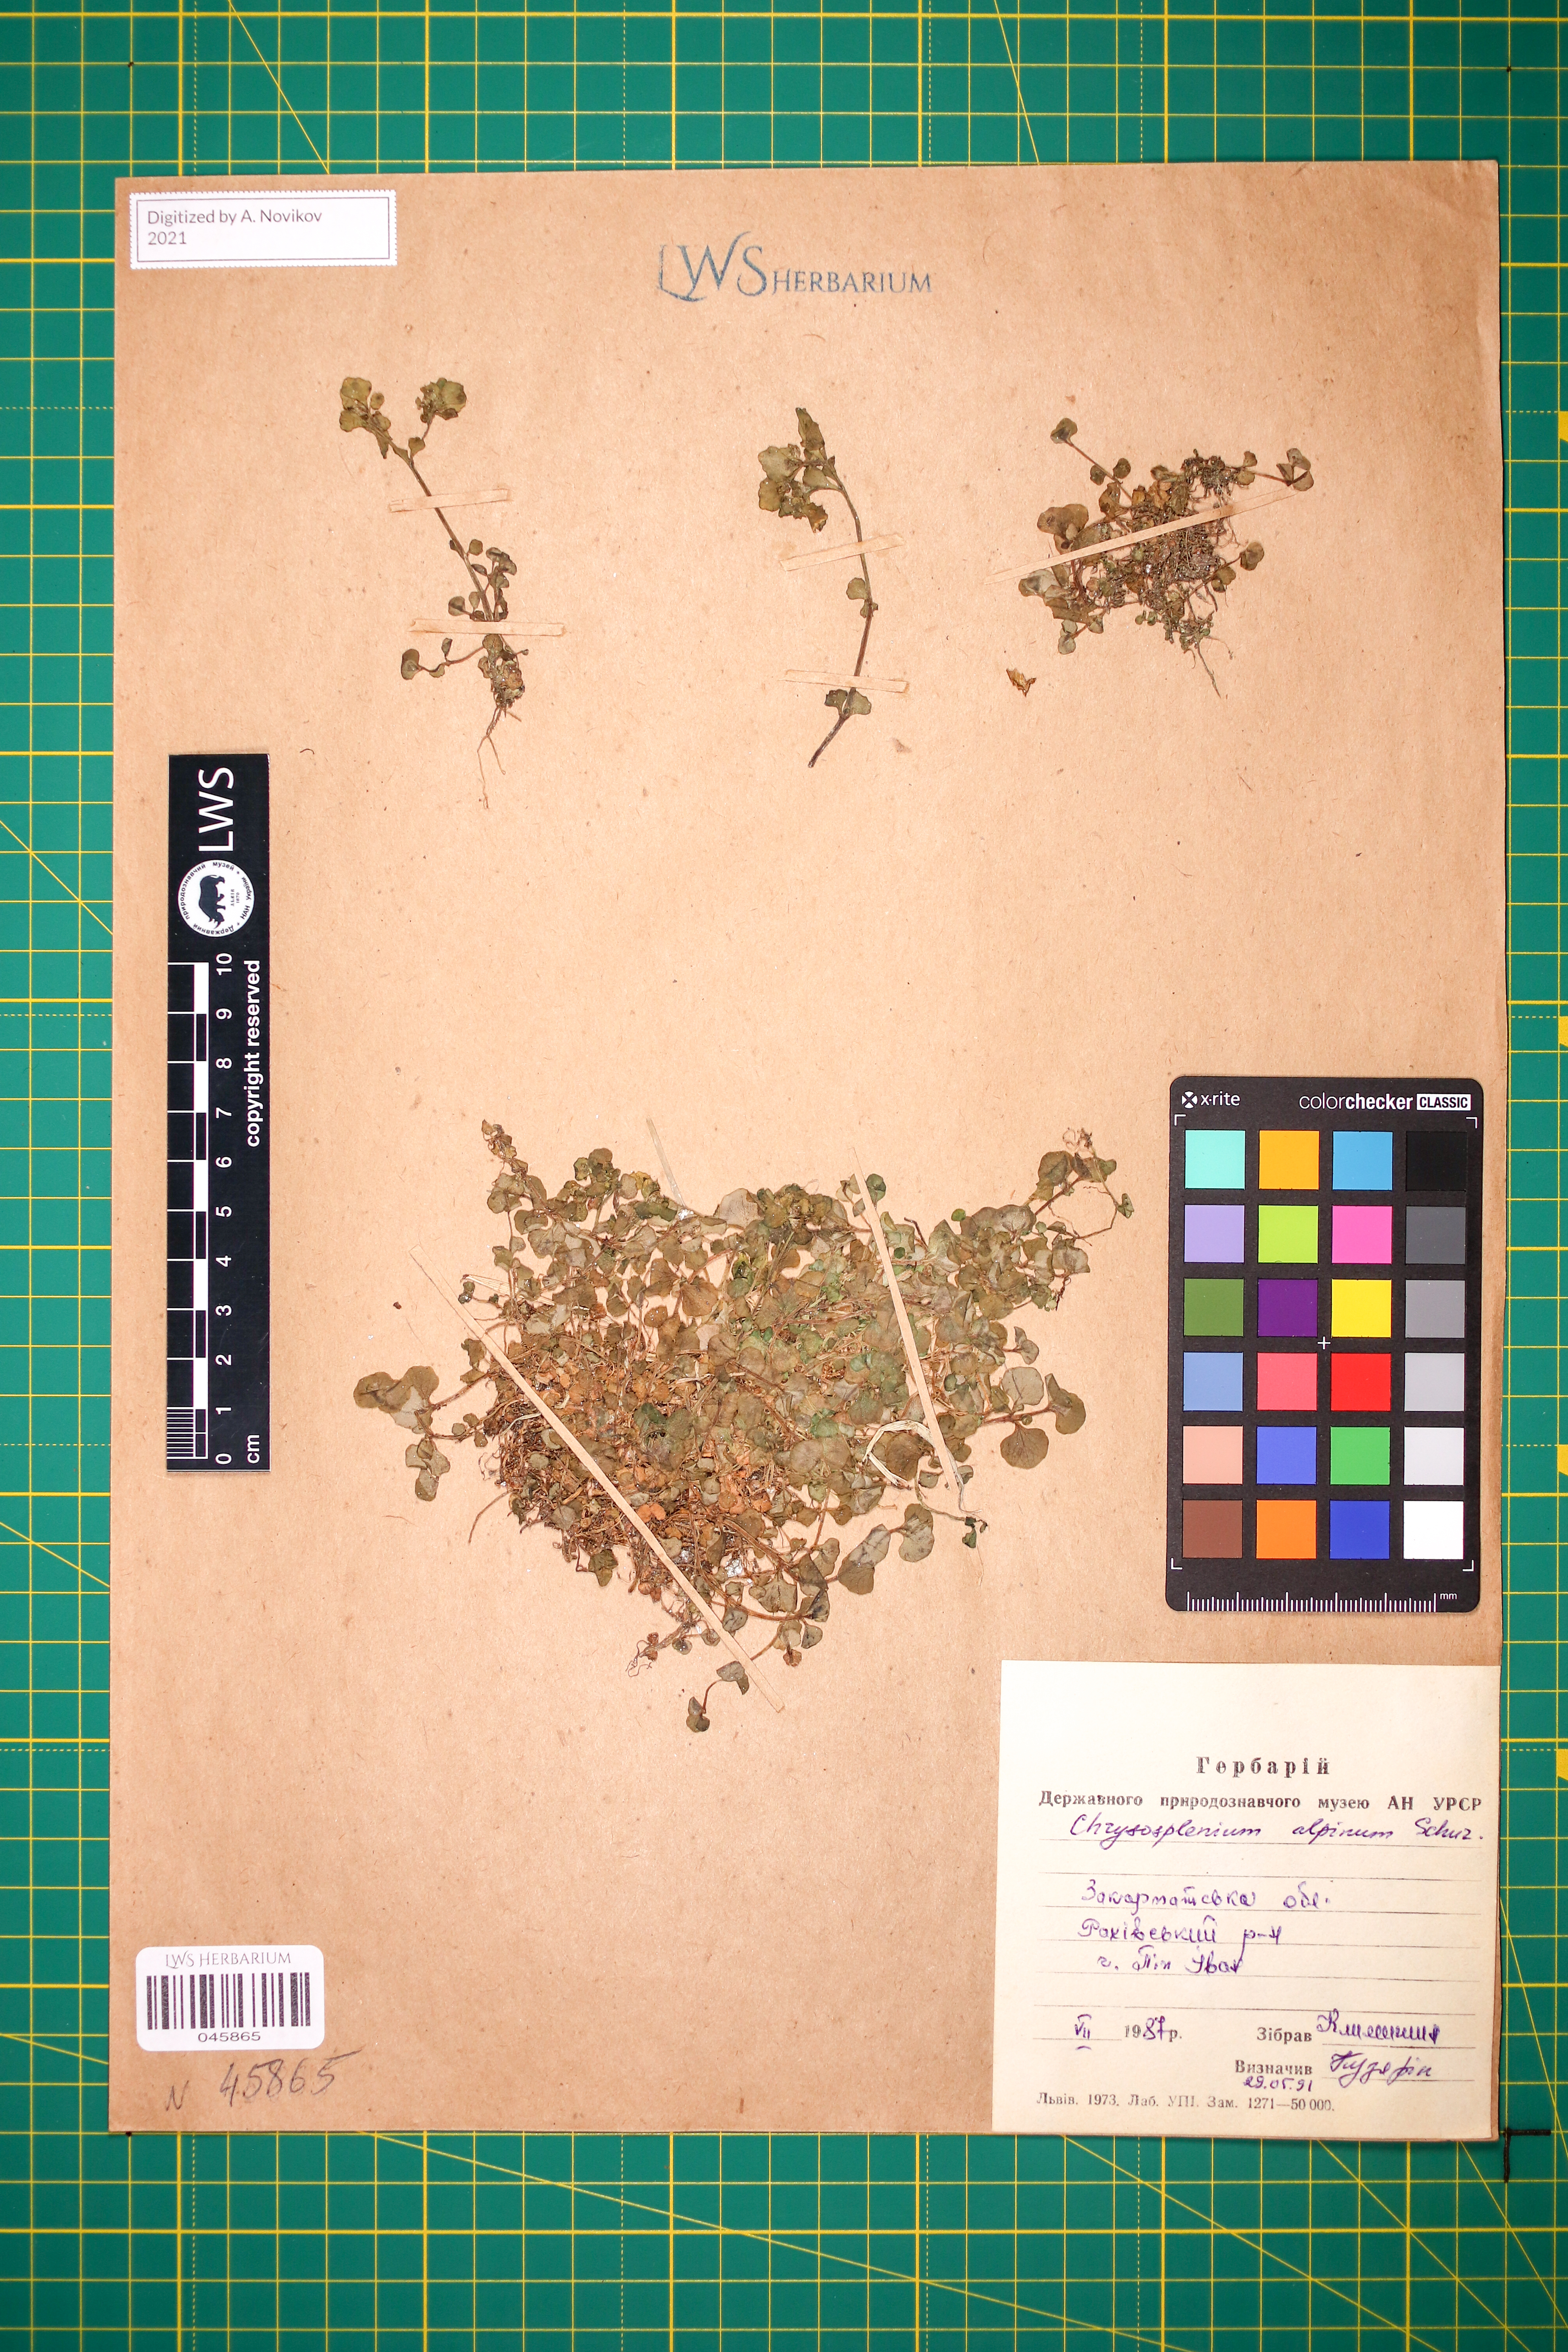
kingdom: Plantae
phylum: Tracheophyta
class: Magnoliopsida
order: Saxifragales
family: Saxifragaceae
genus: Chrysosplenium
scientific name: Chrysosplenium alpinum
